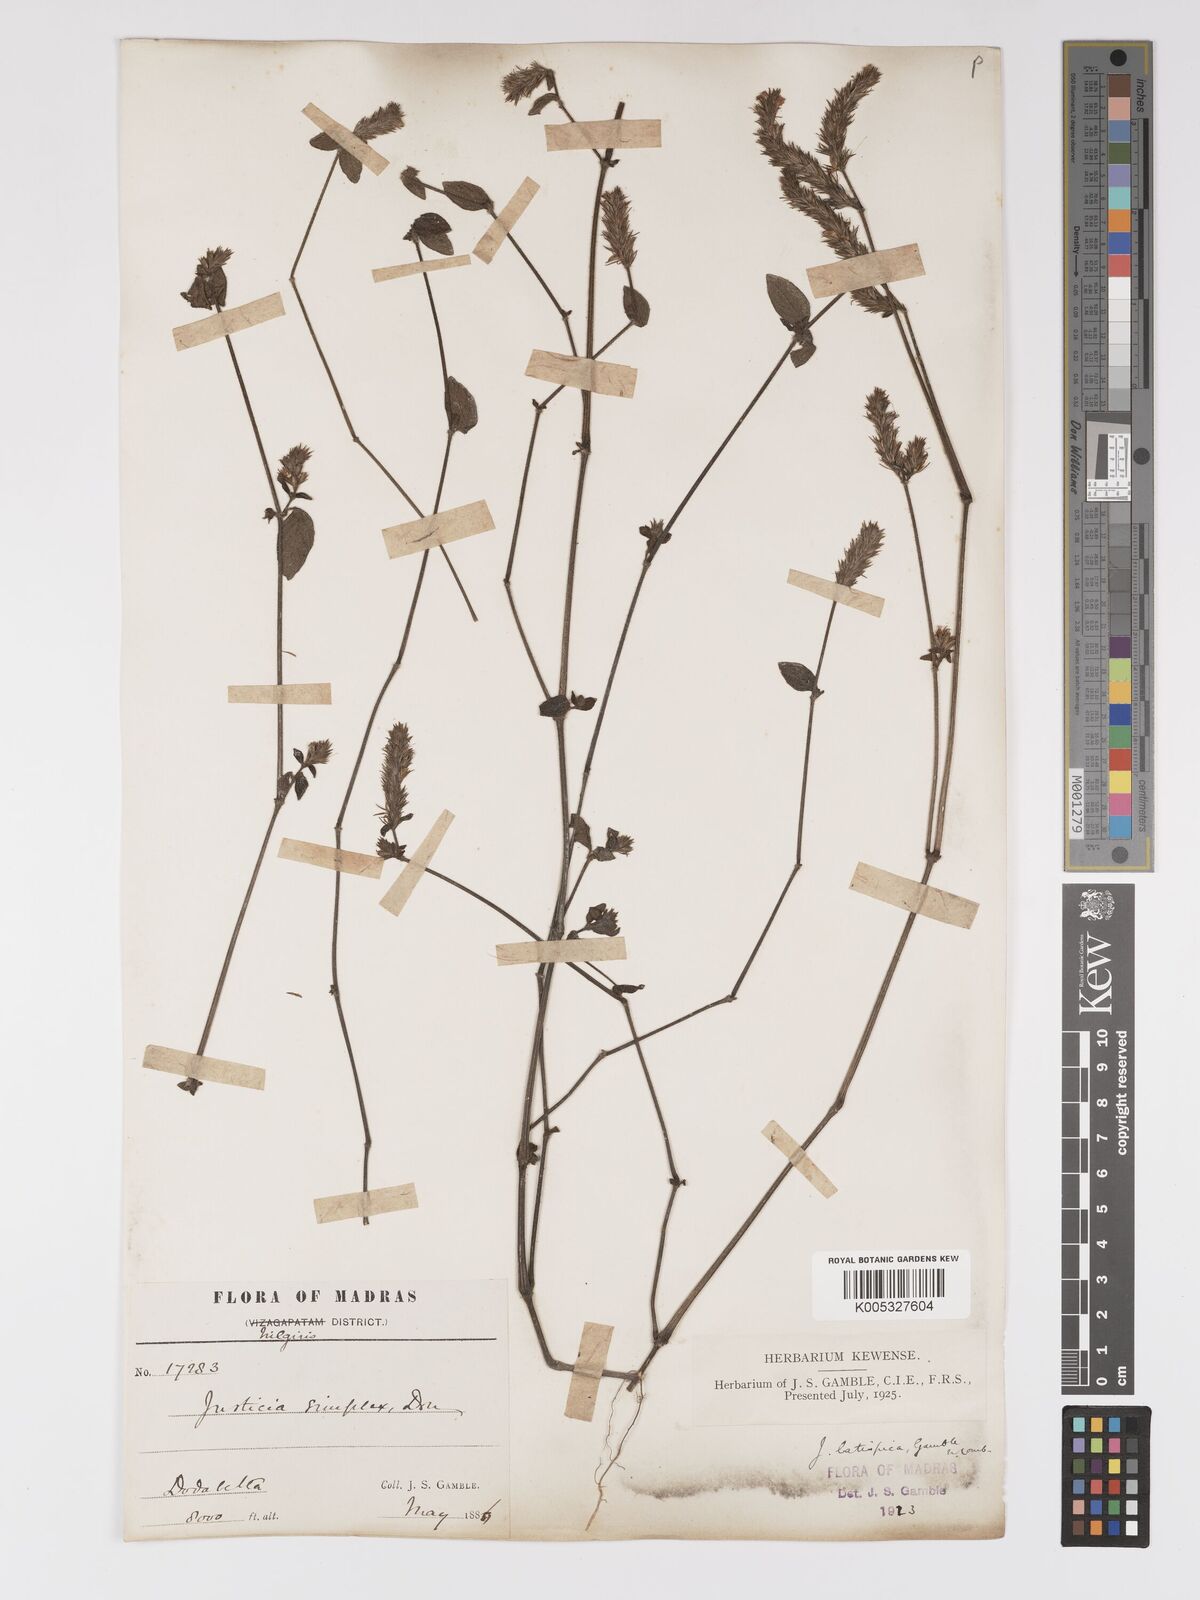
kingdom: Plantae
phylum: Tracheophyta
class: Magnoliopsida
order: Lamiales
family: Acanthaceae
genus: Rostellularia
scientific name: Rostellularia latispica
